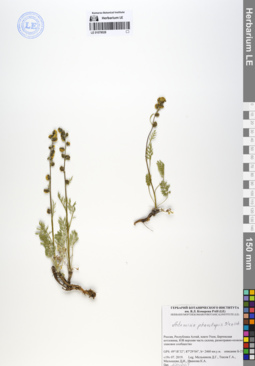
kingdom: Plantae
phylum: Tracheophyta
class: Magnoliopsida
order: Asterales
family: Asteraceae
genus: Artemisia
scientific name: Artemisia phaeolepis
